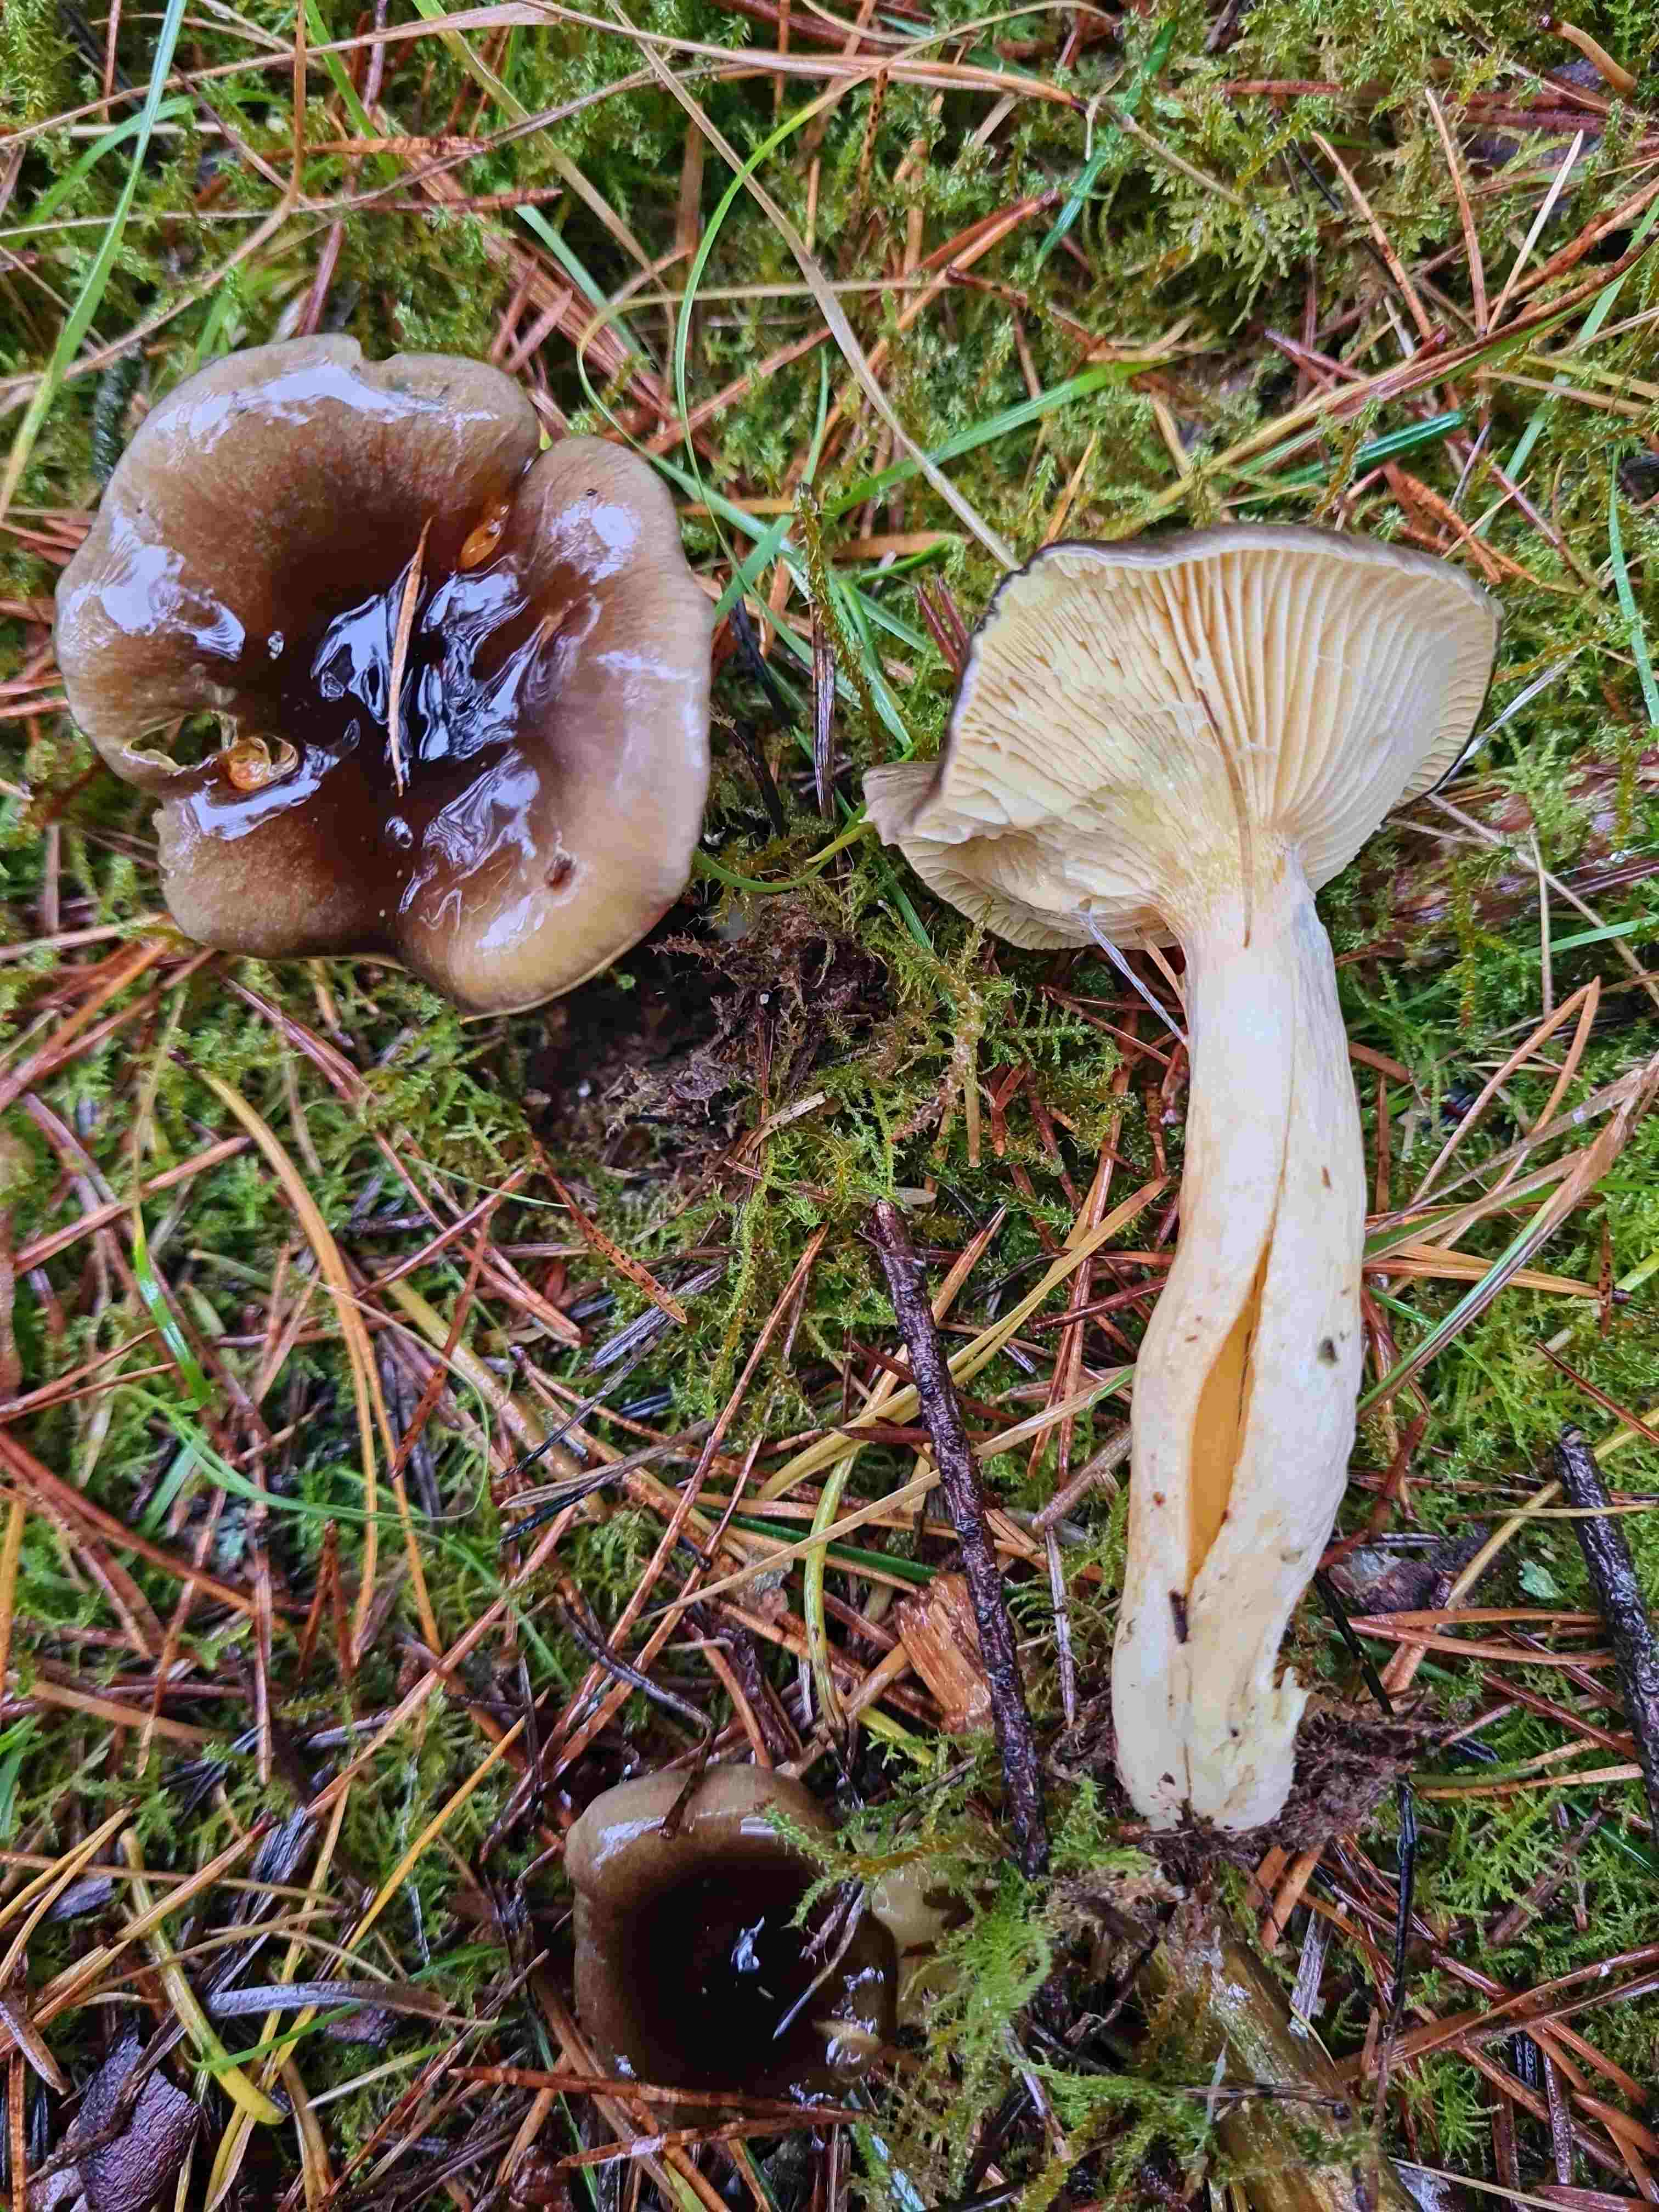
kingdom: Fungi
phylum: Basidiomycota
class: Agaricomycetes
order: Agaricales
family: Hygrophoraceae
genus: Hygrophorus
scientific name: Hygrophorus hypothejus
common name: frost-sneglehat
